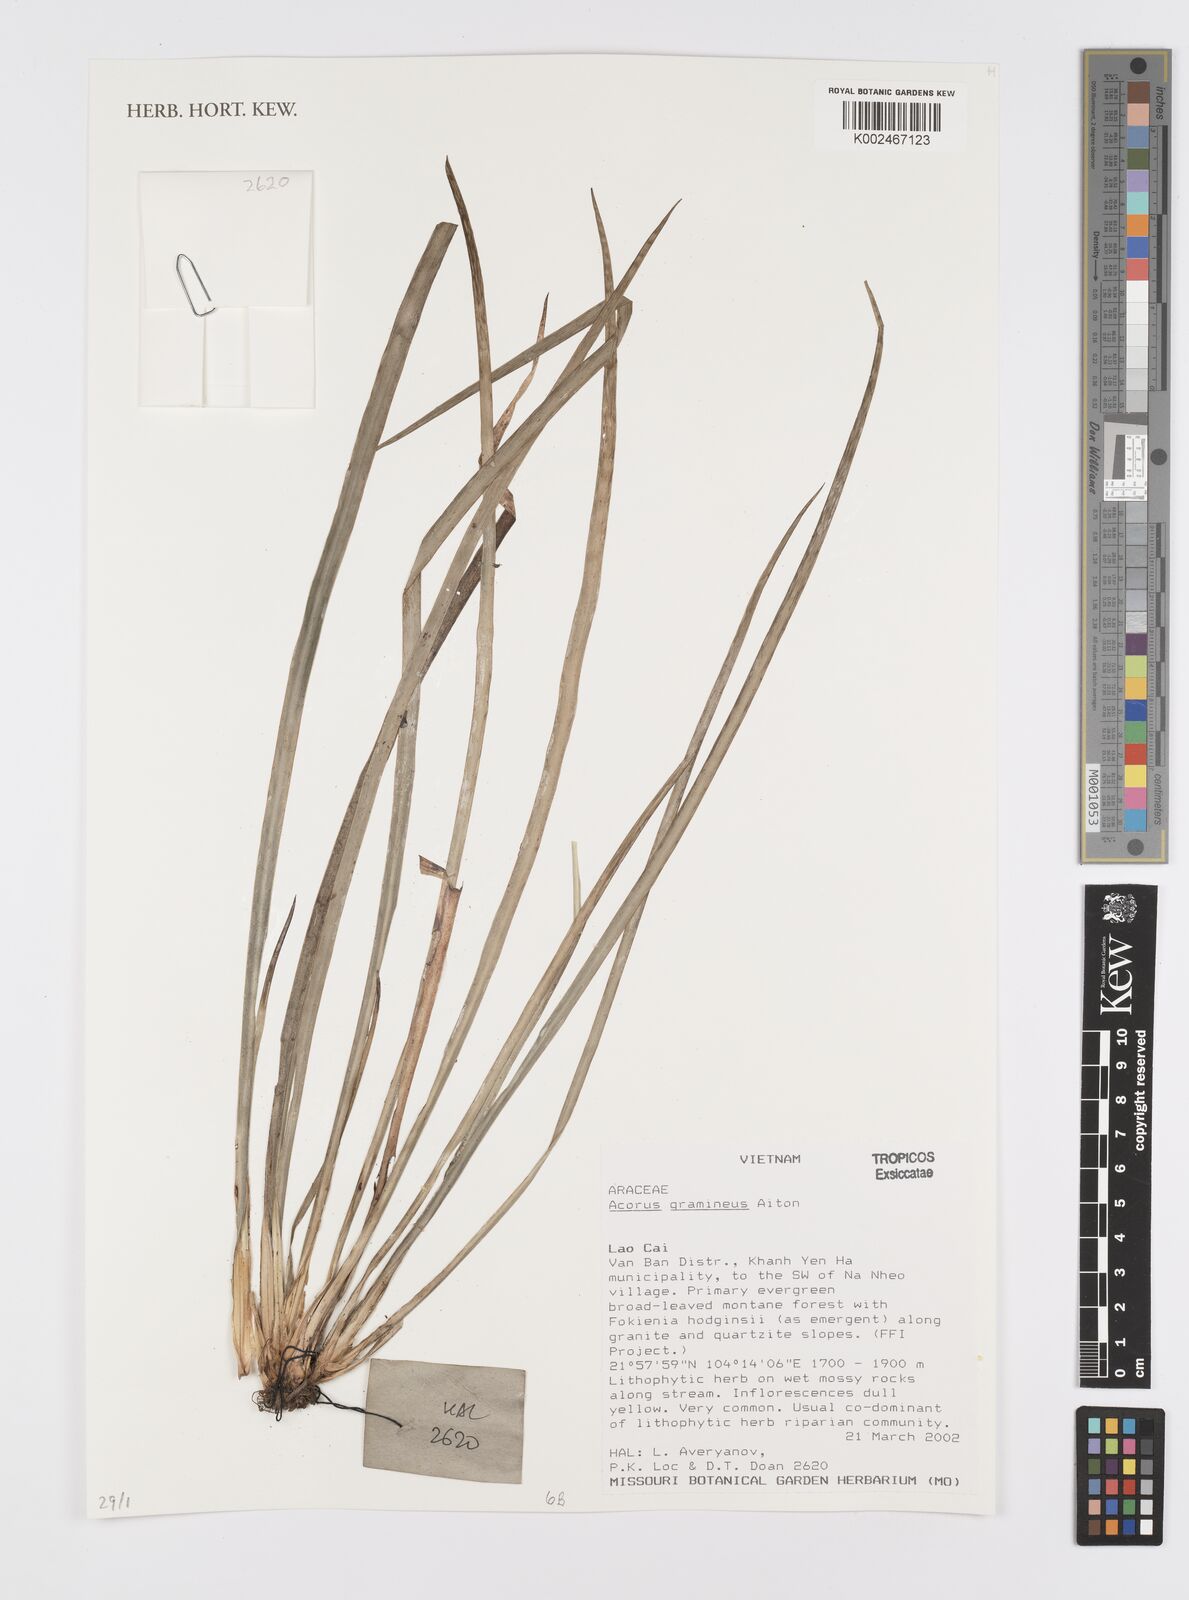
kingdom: Plantae
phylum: Tracheophyta
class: Liliopsida
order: Acorales
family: Acoraceae
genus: Acorus
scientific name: Acorus gramineus
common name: Slender sweet-flag
